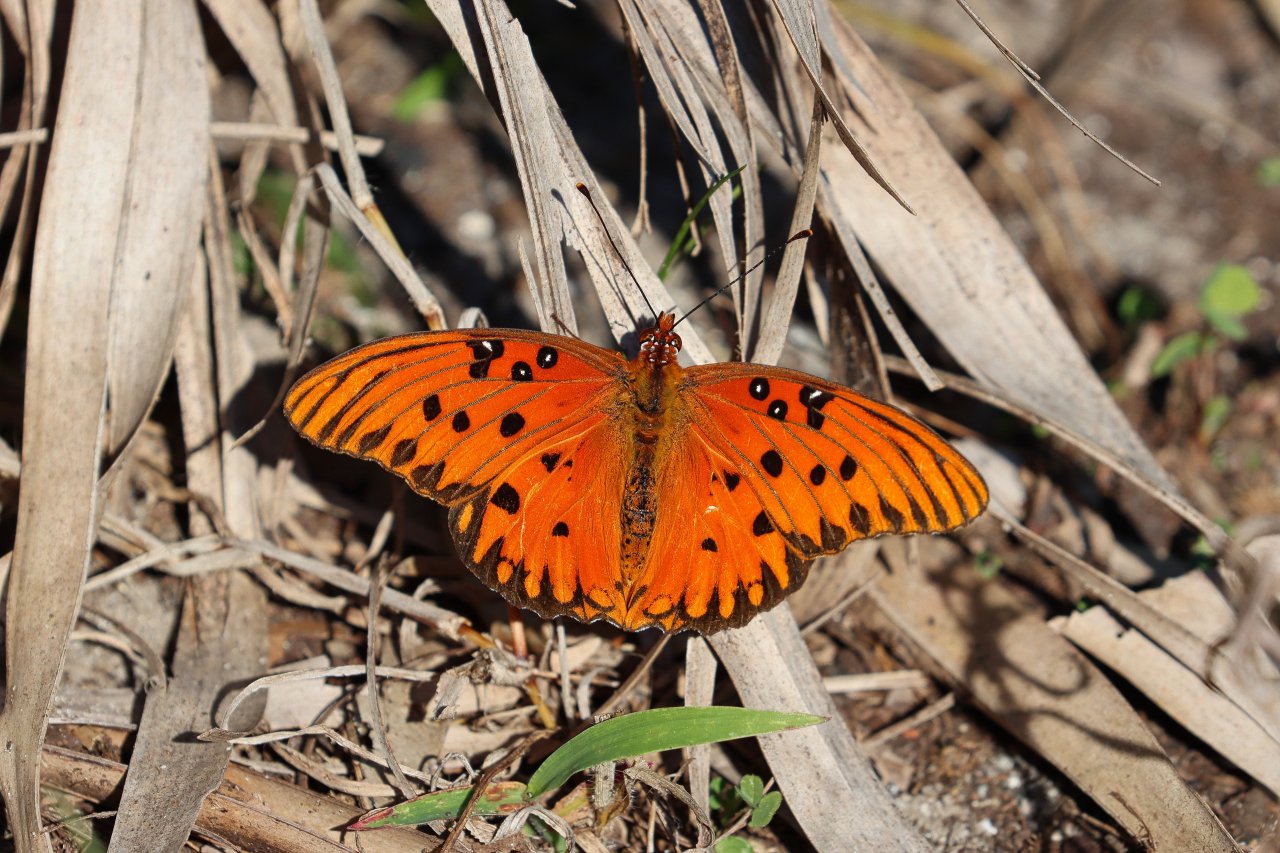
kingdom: Animalia
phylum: Arthropoda
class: Insecta
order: Lepidoptera
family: Nymphalidae
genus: Dione
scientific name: Dione vanillae
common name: Gulf Fritillary
